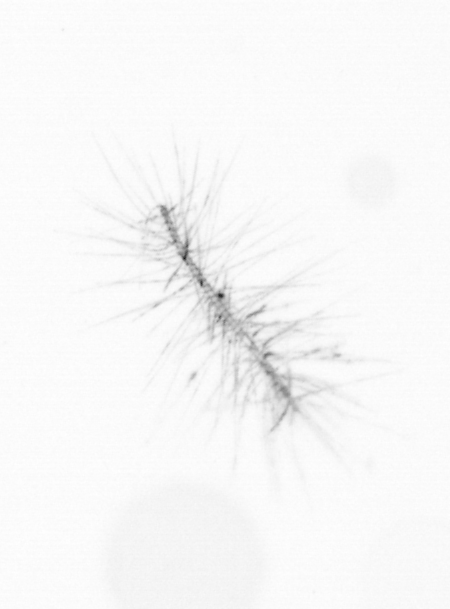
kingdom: Chromista
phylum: Ochrophyta
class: Bacillariophyceae
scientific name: Bacillariophyceae
